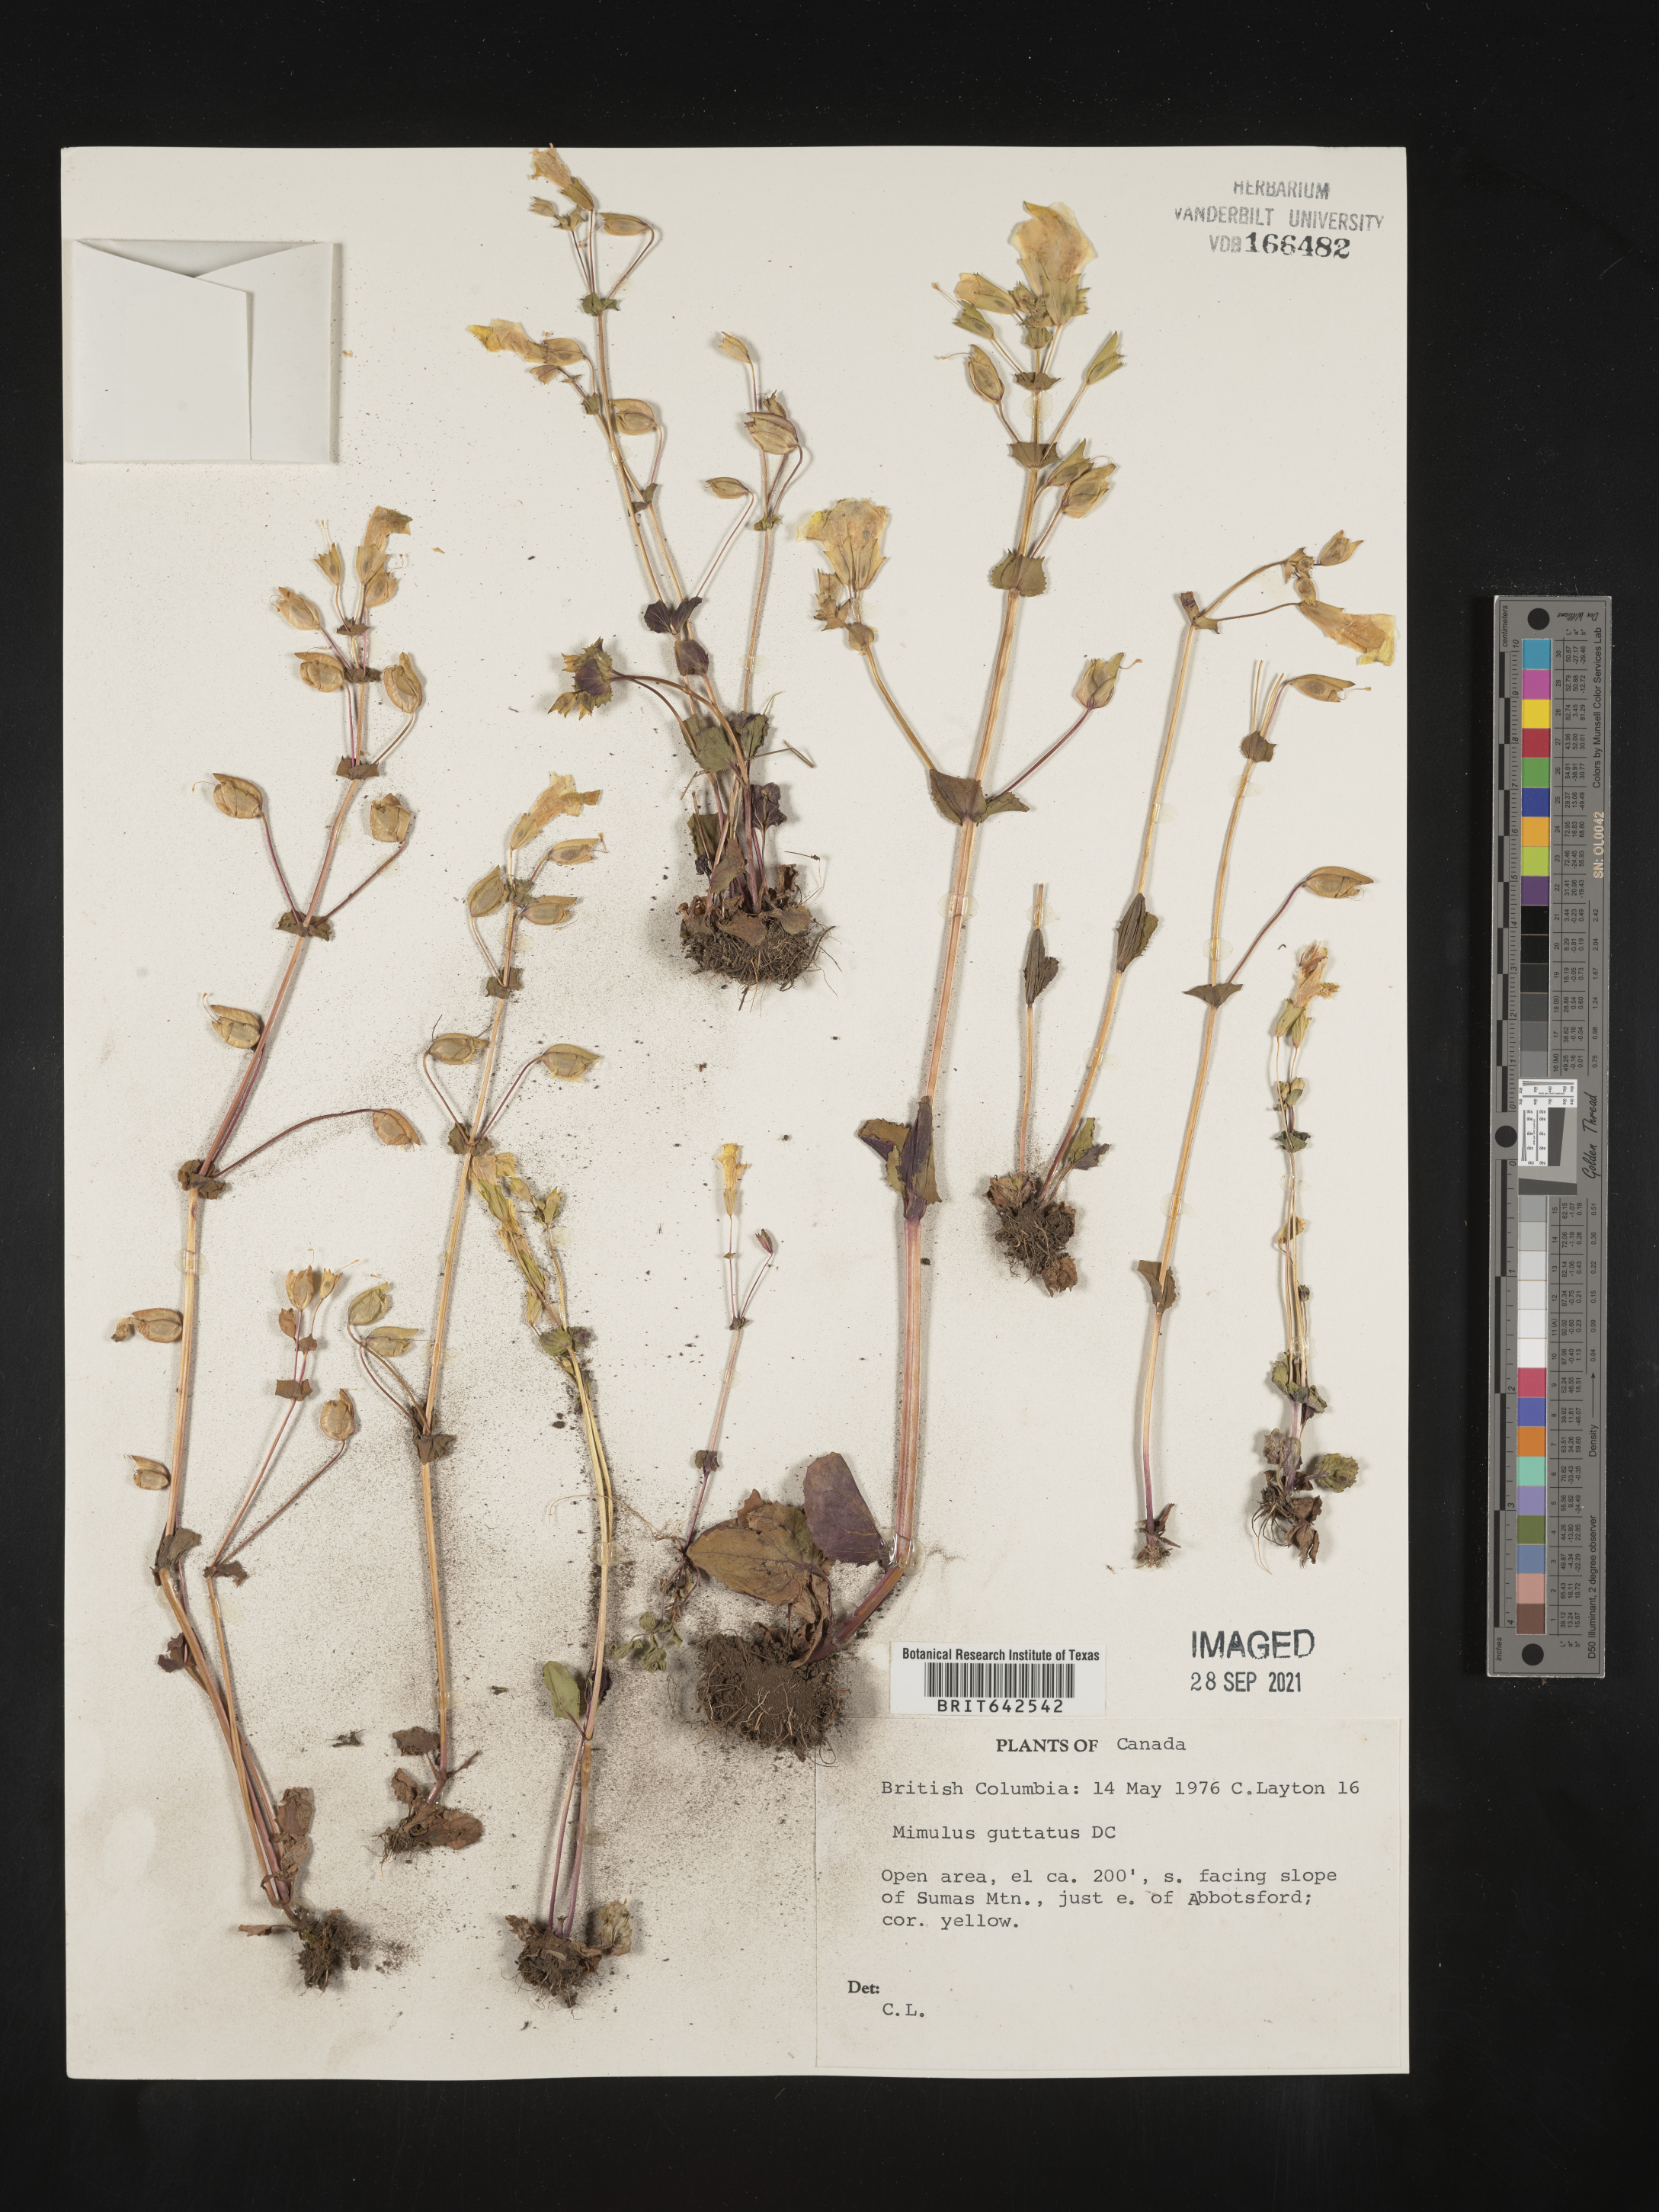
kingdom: Plantae
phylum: Tracheophyta
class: Magnoliopsida
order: Lamiales
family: Phrymaceae
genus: Mimulus
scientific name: Mimulus
